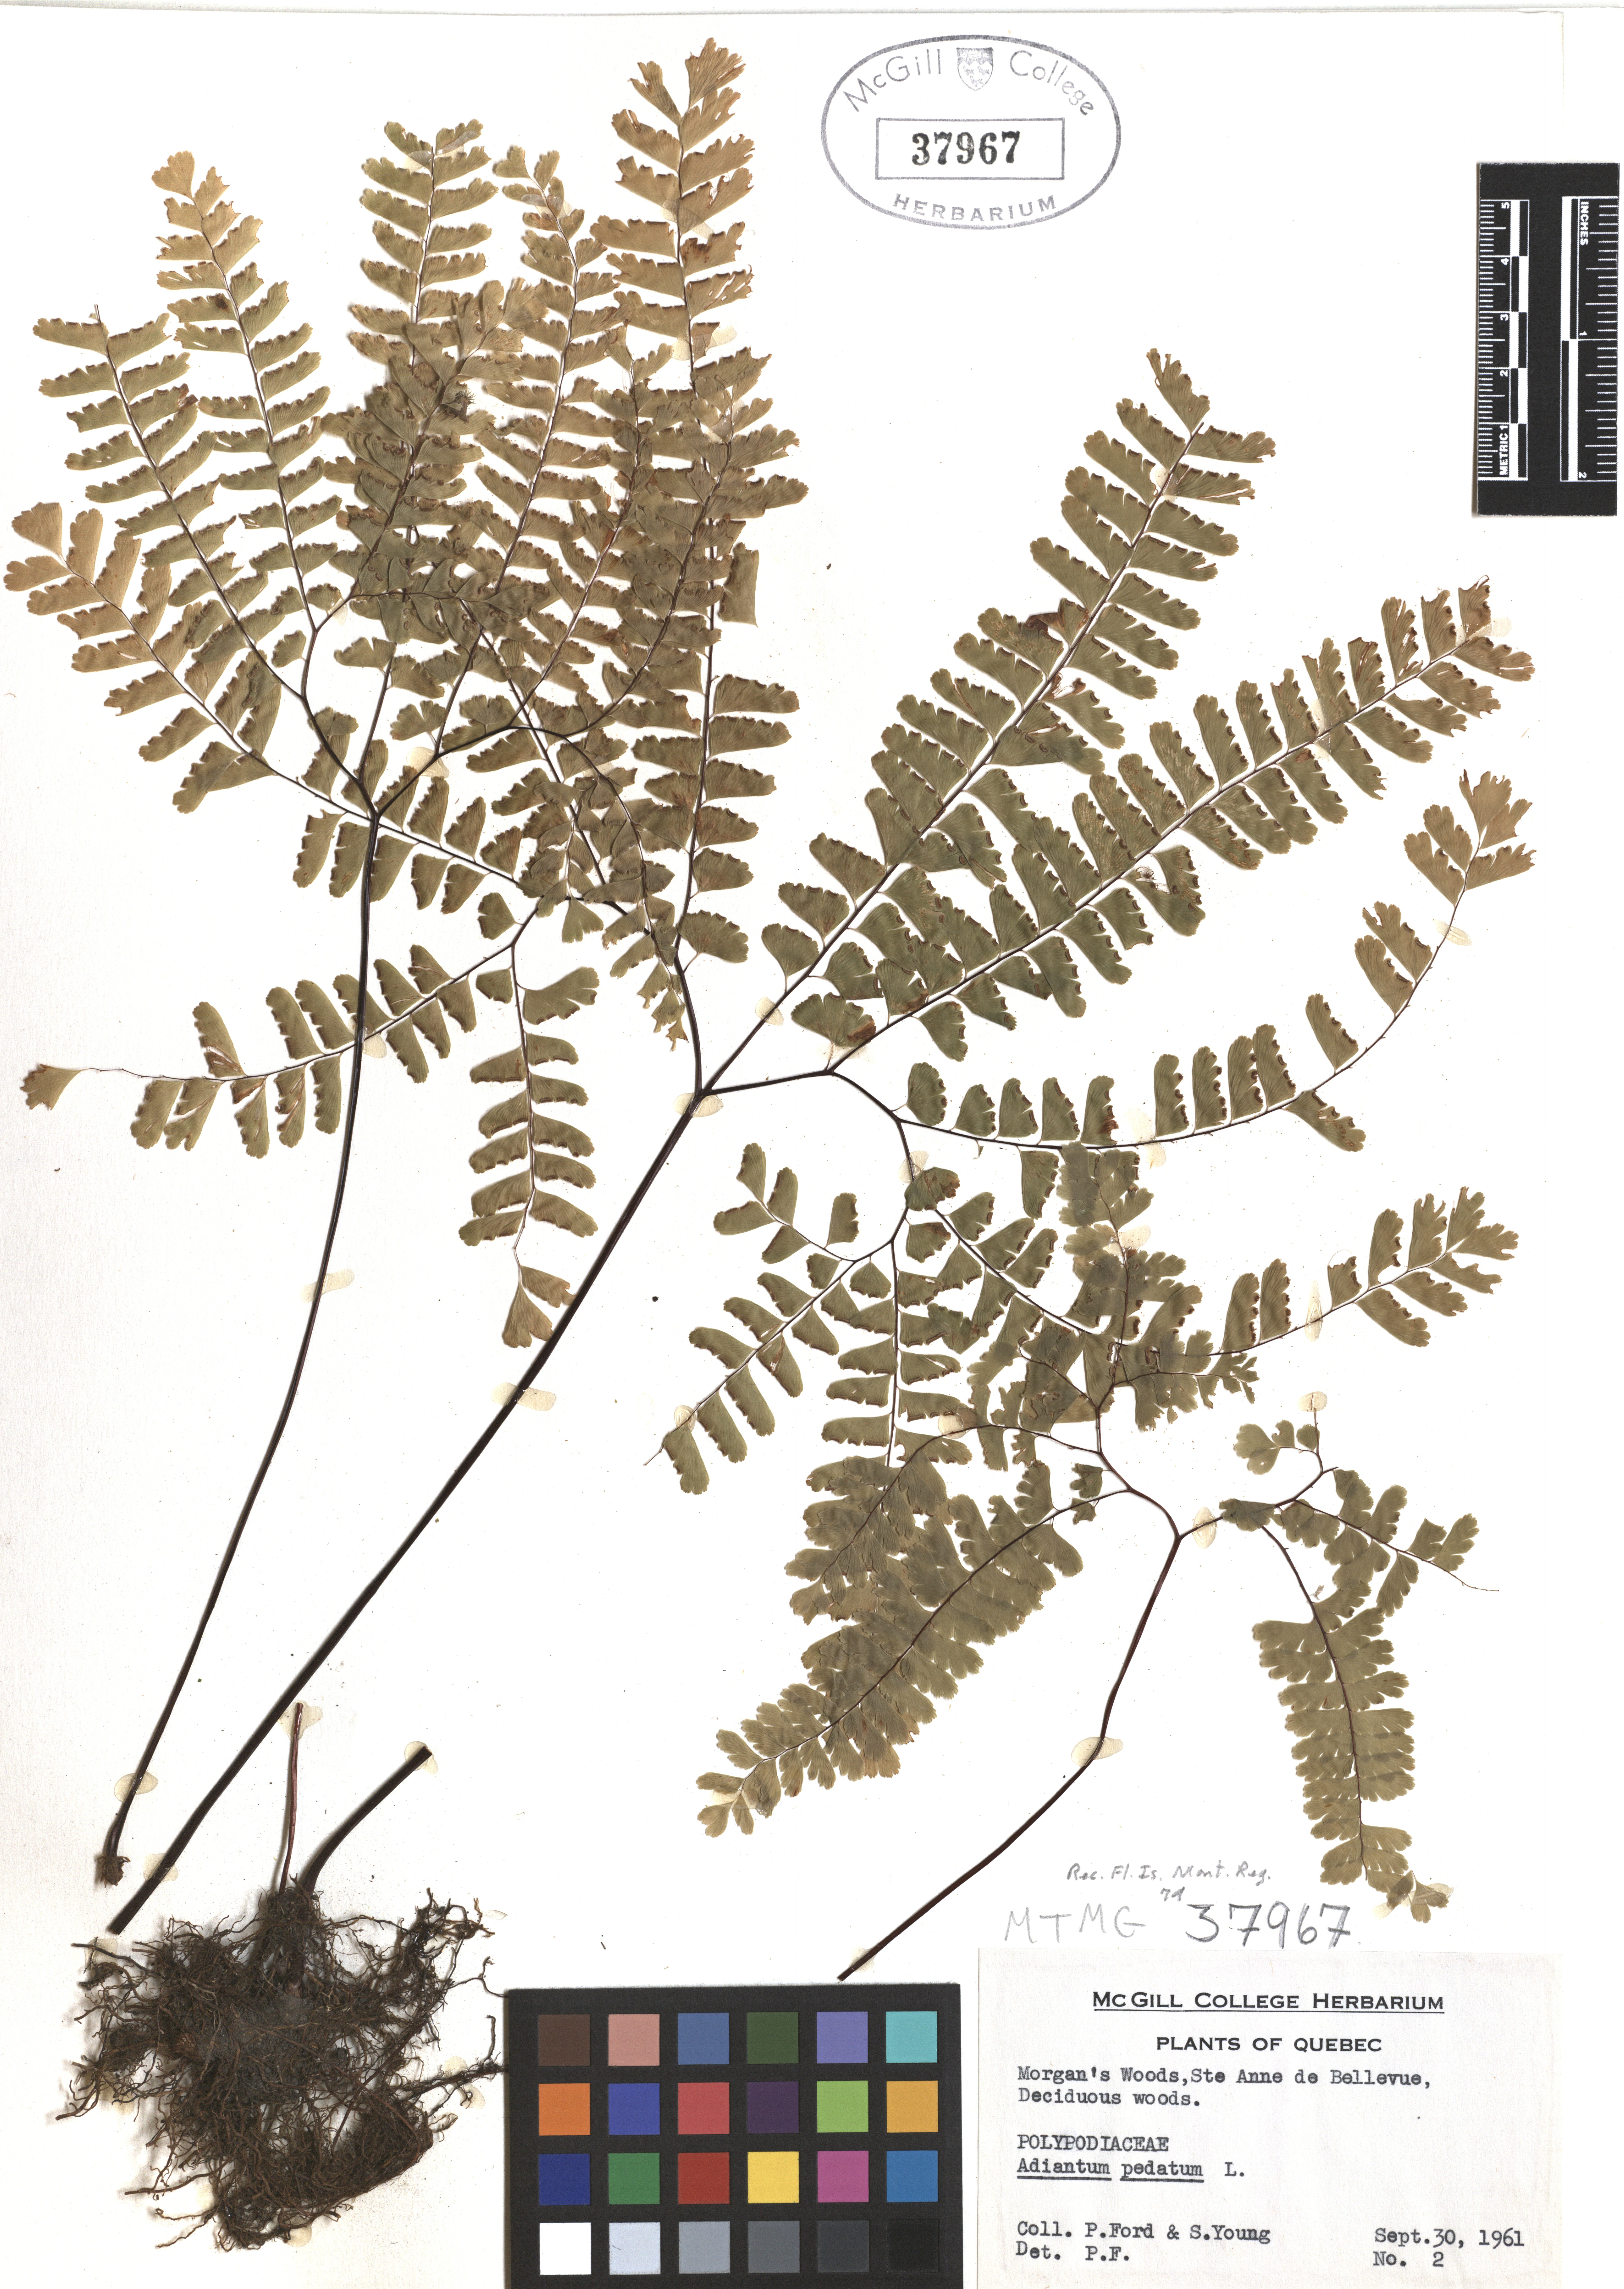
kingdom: Plantae
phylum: Tracheophyta
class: Polypodiopsida
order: Polypodiales
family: Pteridaceae
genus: Adiantum
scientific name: Adiantum pedatum
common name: Five-finger fern
